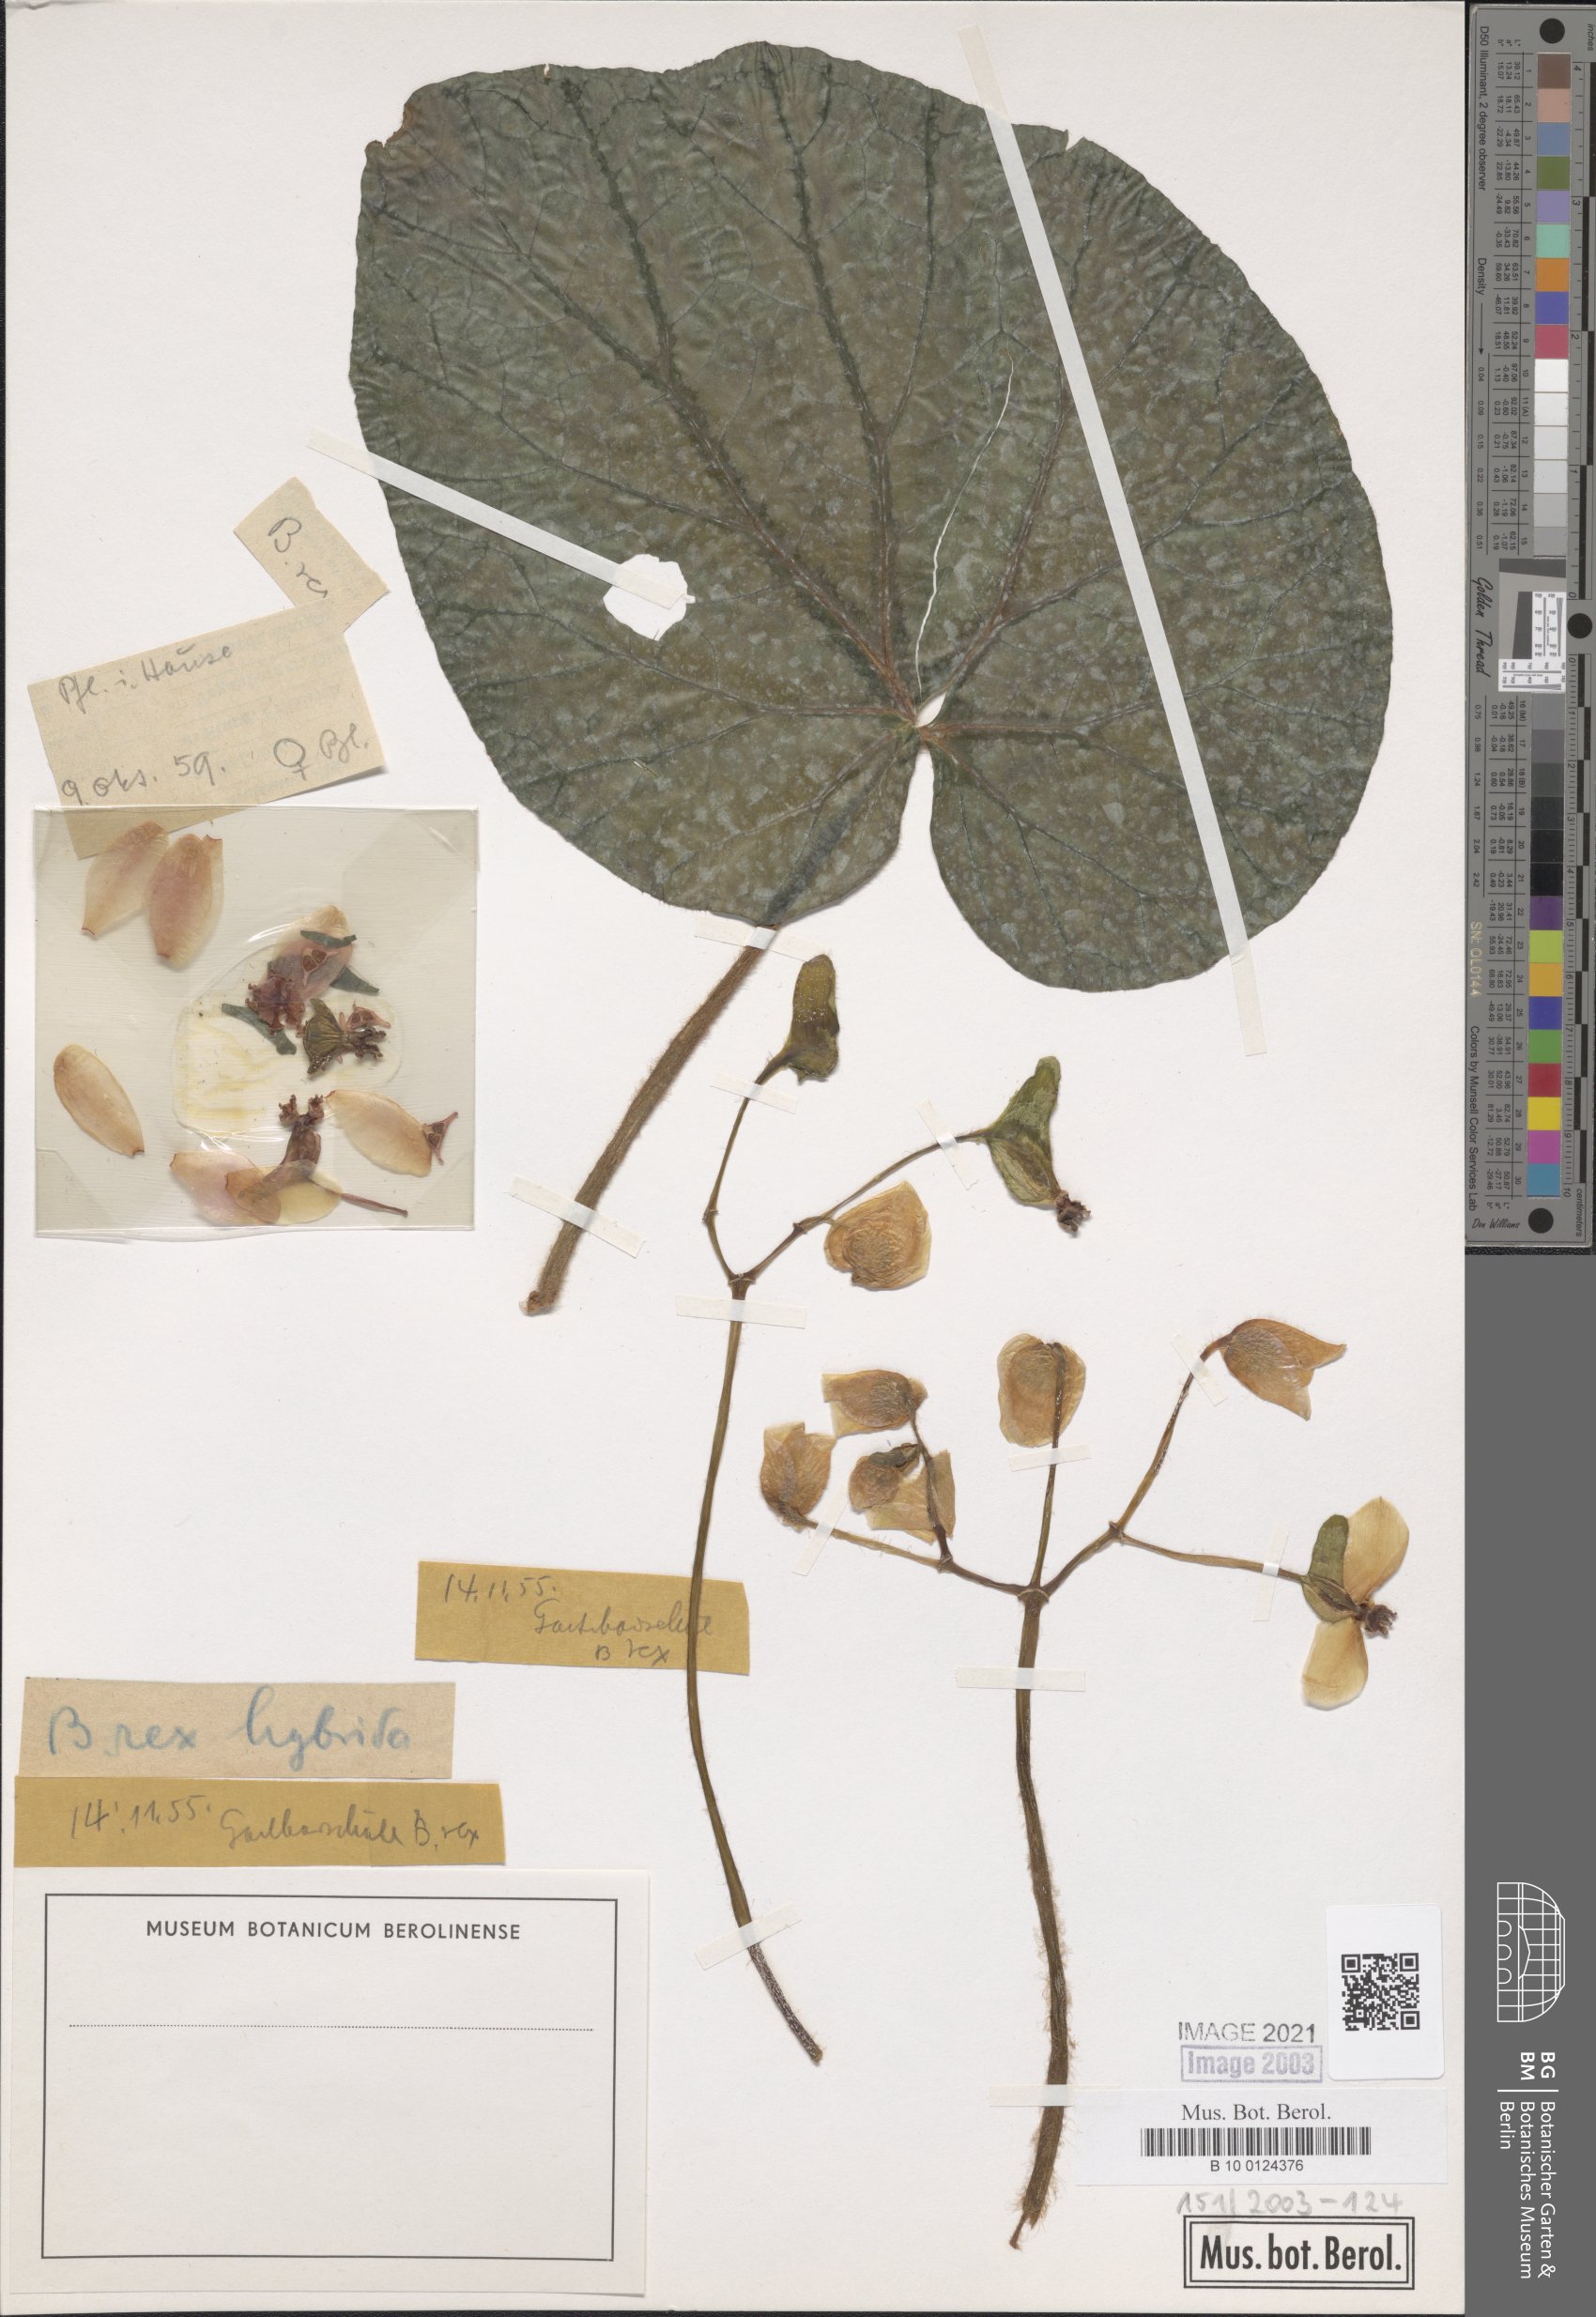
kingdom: Plantae
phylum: Tracheophyta
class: Magnoliopsida
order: Cucurbitales
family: Begoniaceae
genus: Begonia
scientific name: Begonia rex
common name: Painted-leaf begonia
